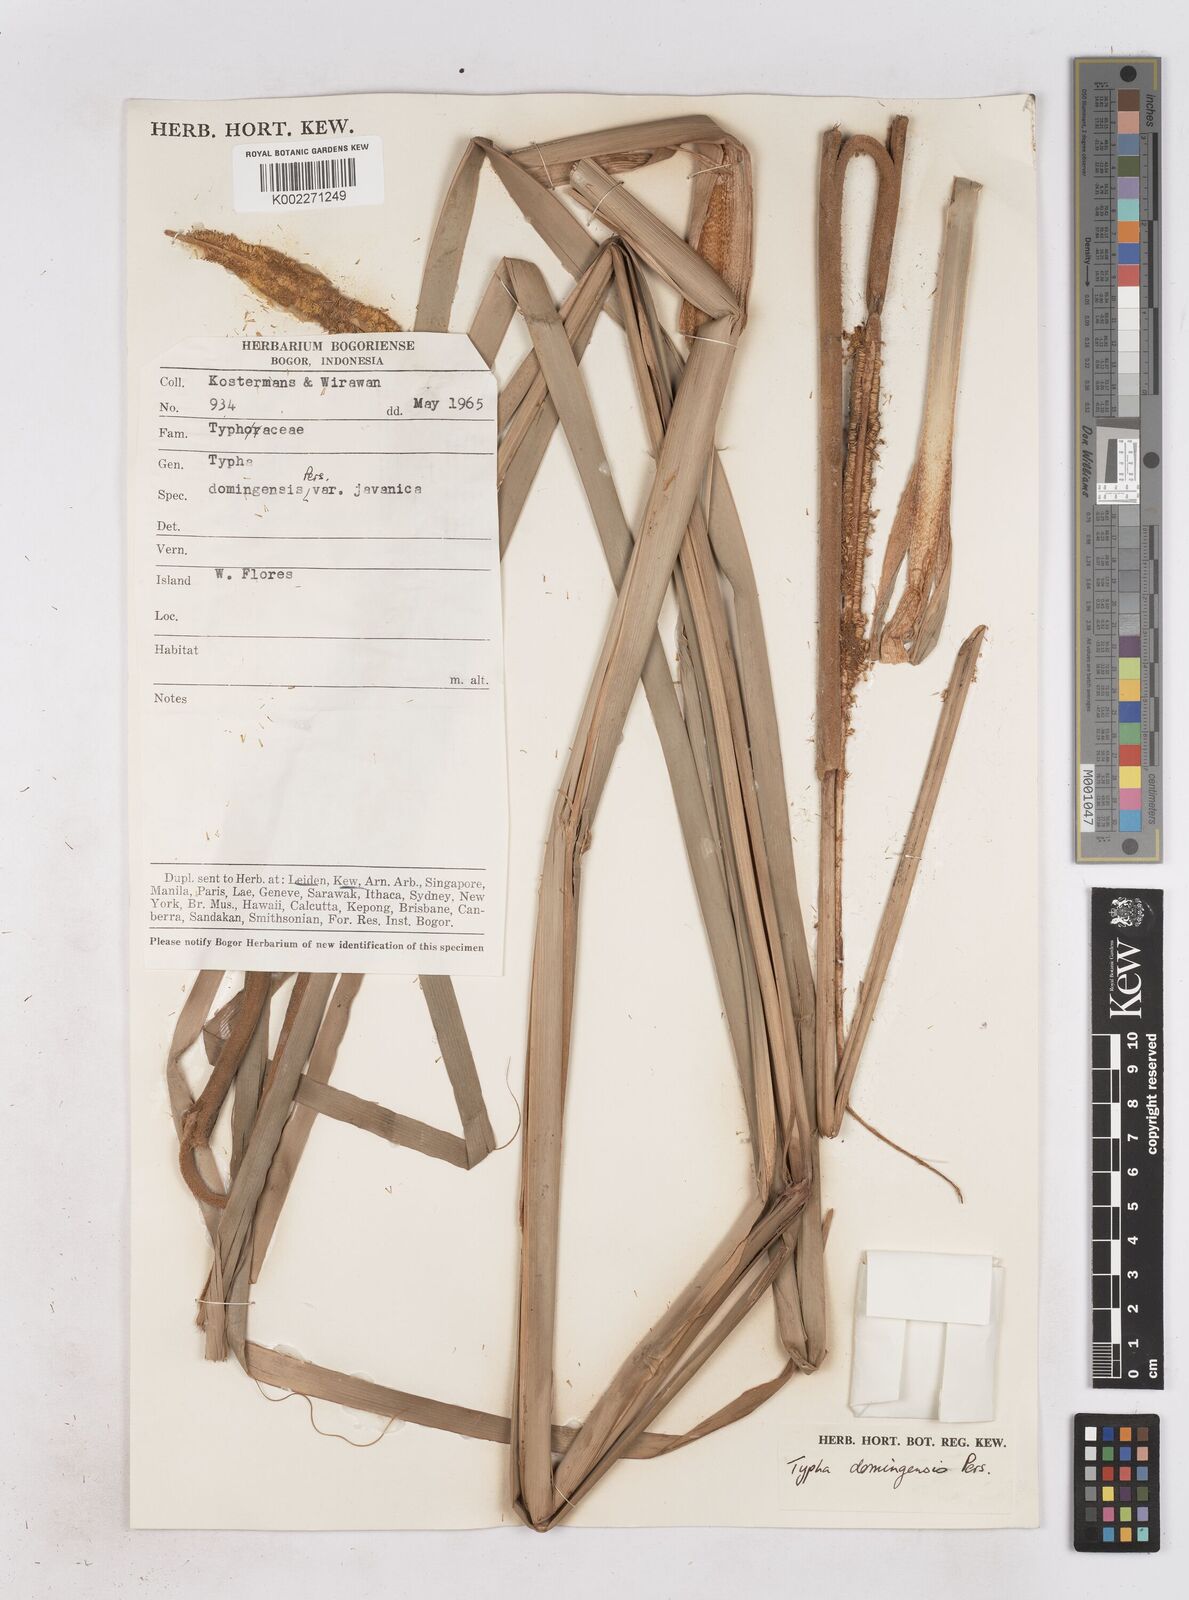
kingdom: Plantae
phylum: Tracheophyta
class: Liliopsida
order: Poales
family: Typhaceae
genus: Typha
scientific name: Typha domingensis
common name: Southern cattail
